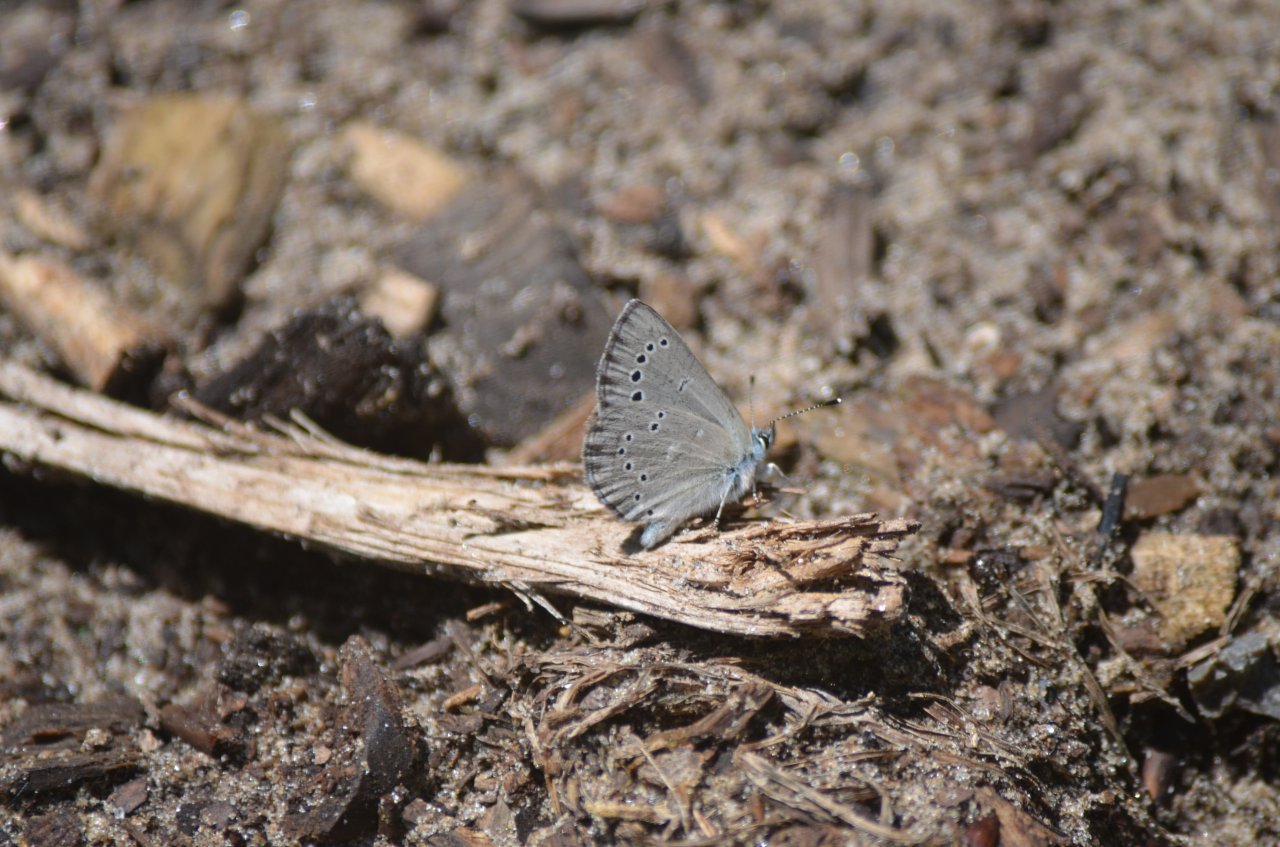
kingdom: Animalia
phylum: Arthropoda
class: Insecta
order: Lepidoptera
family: Lycaenidae
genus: Glaucopsyche
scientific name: Glaucopsyche lygdamus
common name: Silvery Blue
